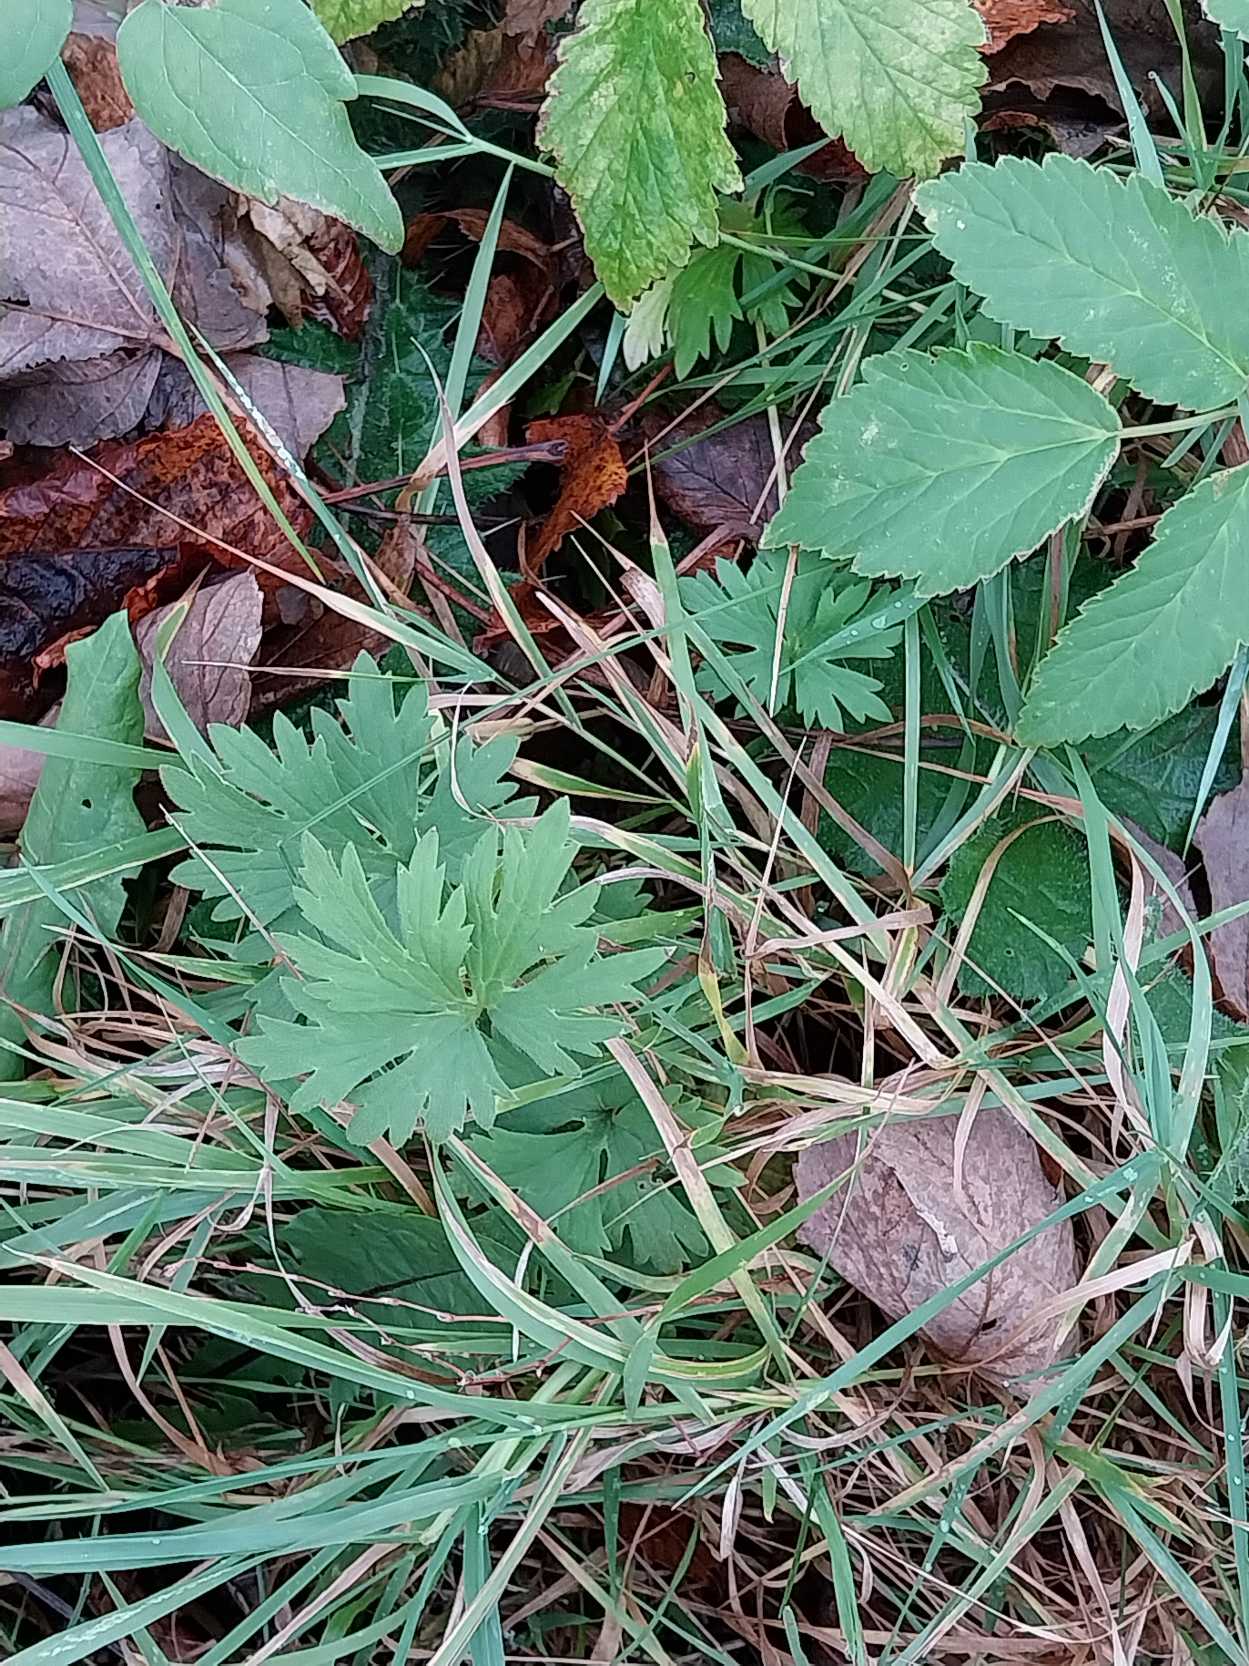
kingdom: Plantae
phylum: Tracheophyta
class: Magnoliopsida
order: Ranunculales
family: Ranunculaceae
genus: Ranunculus
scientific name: Ranunculus acris
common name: Bidende ranunkel
